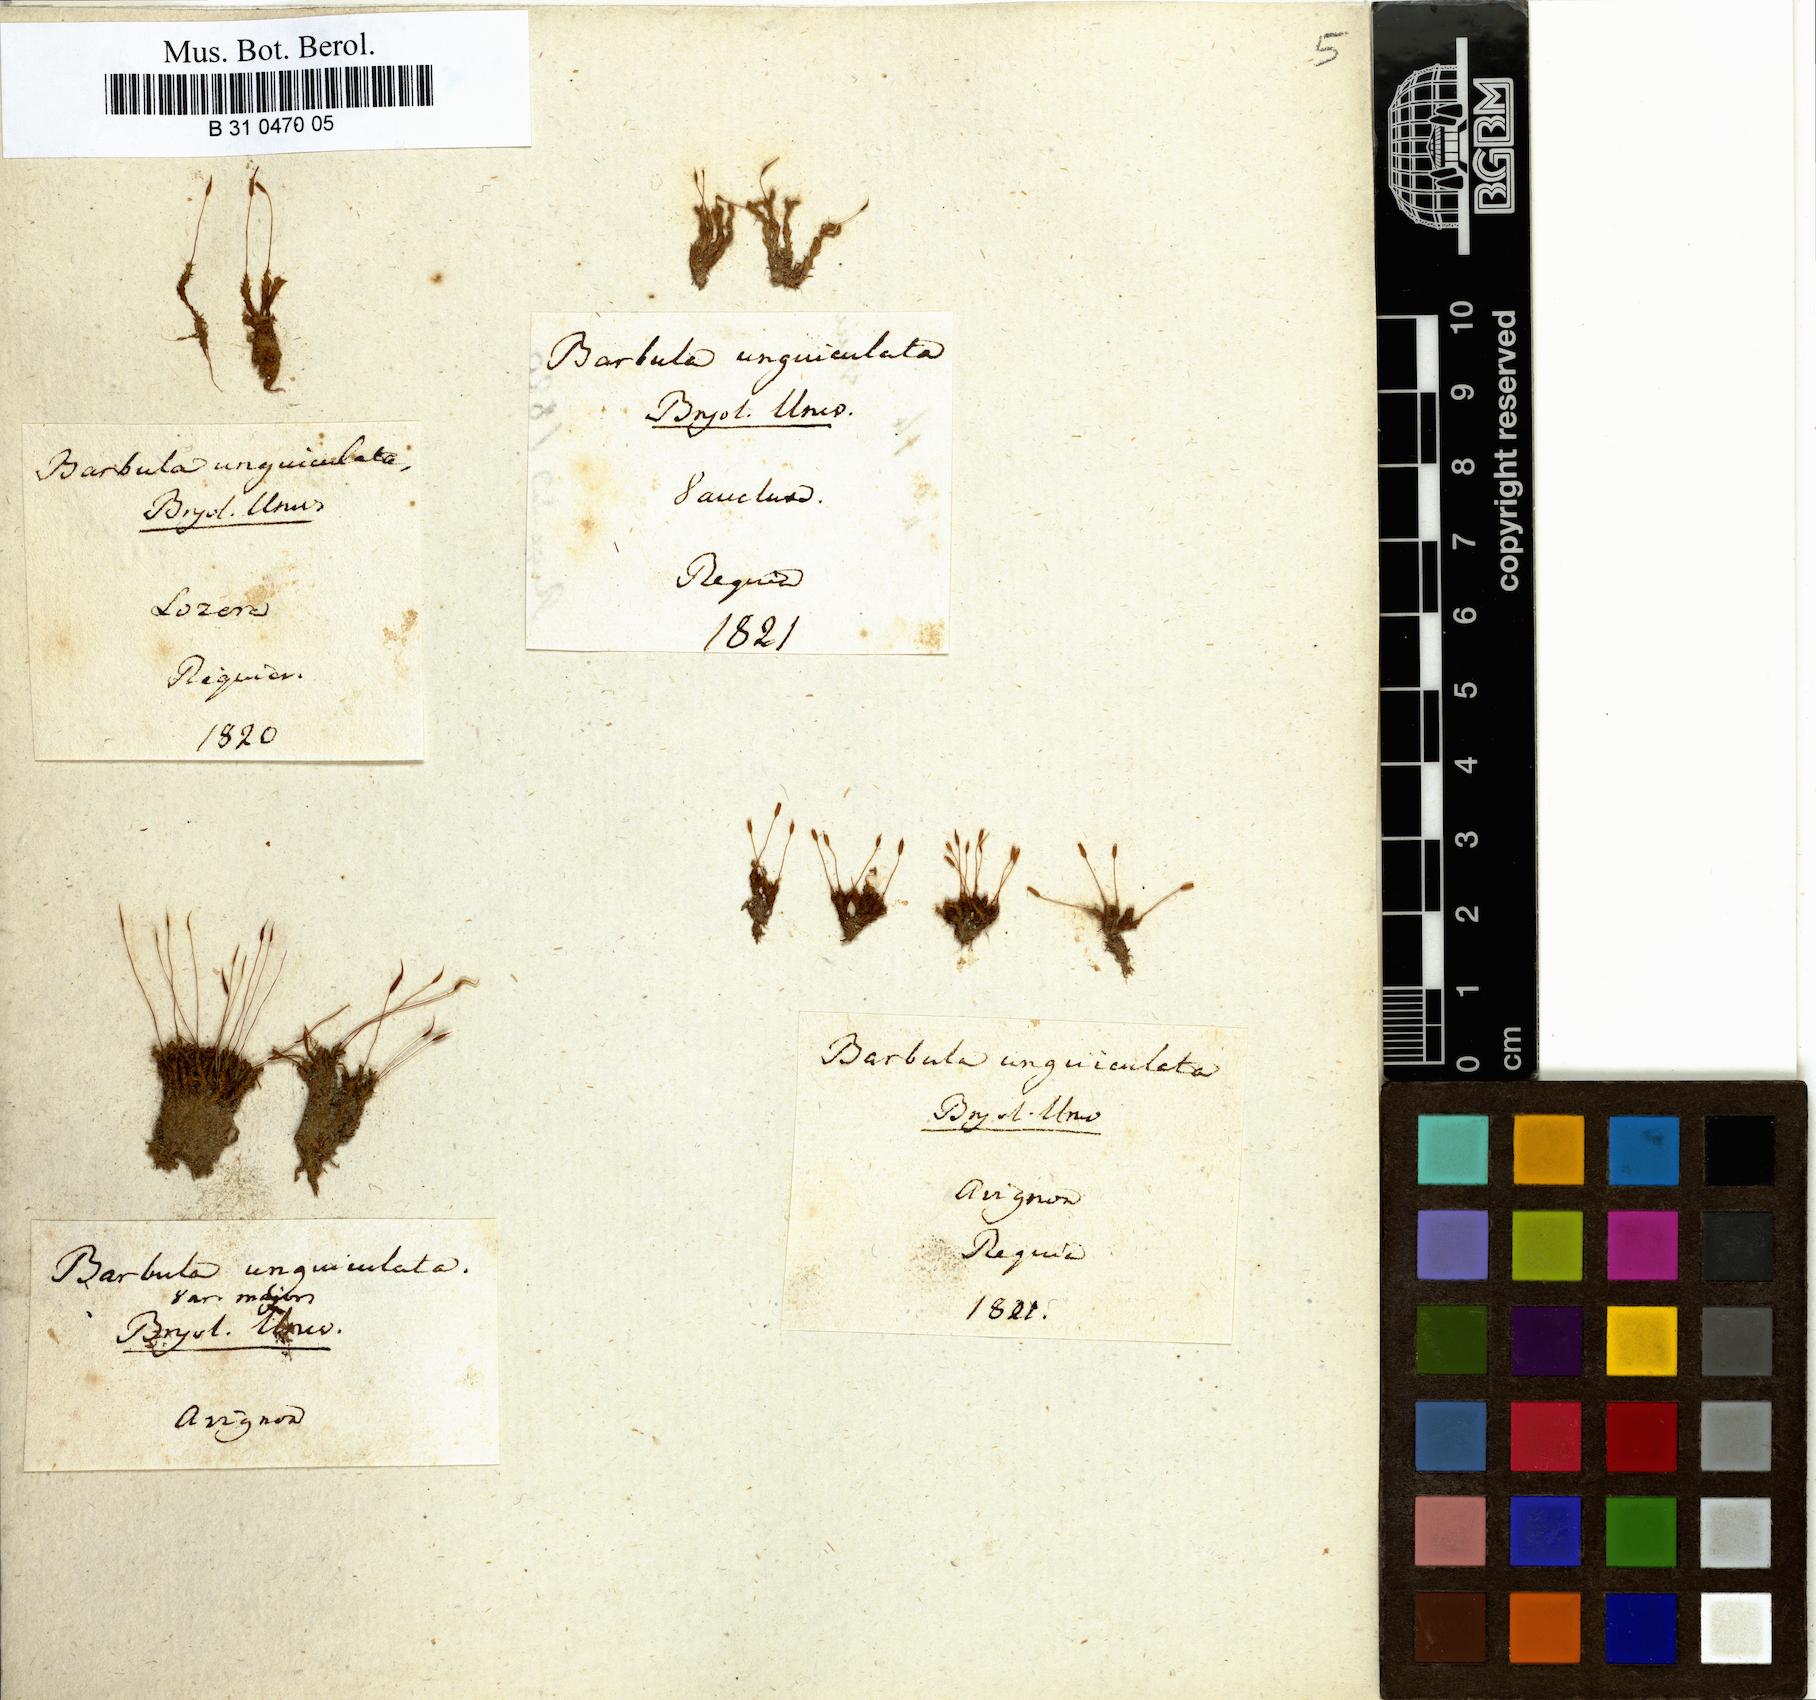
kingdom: Plantae
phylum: Bryophyta
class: Bryopsida
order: Pottiales
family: Pottiaceae
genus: Barbula
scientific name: Barbula unguiculata
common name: Prickly beard moss
